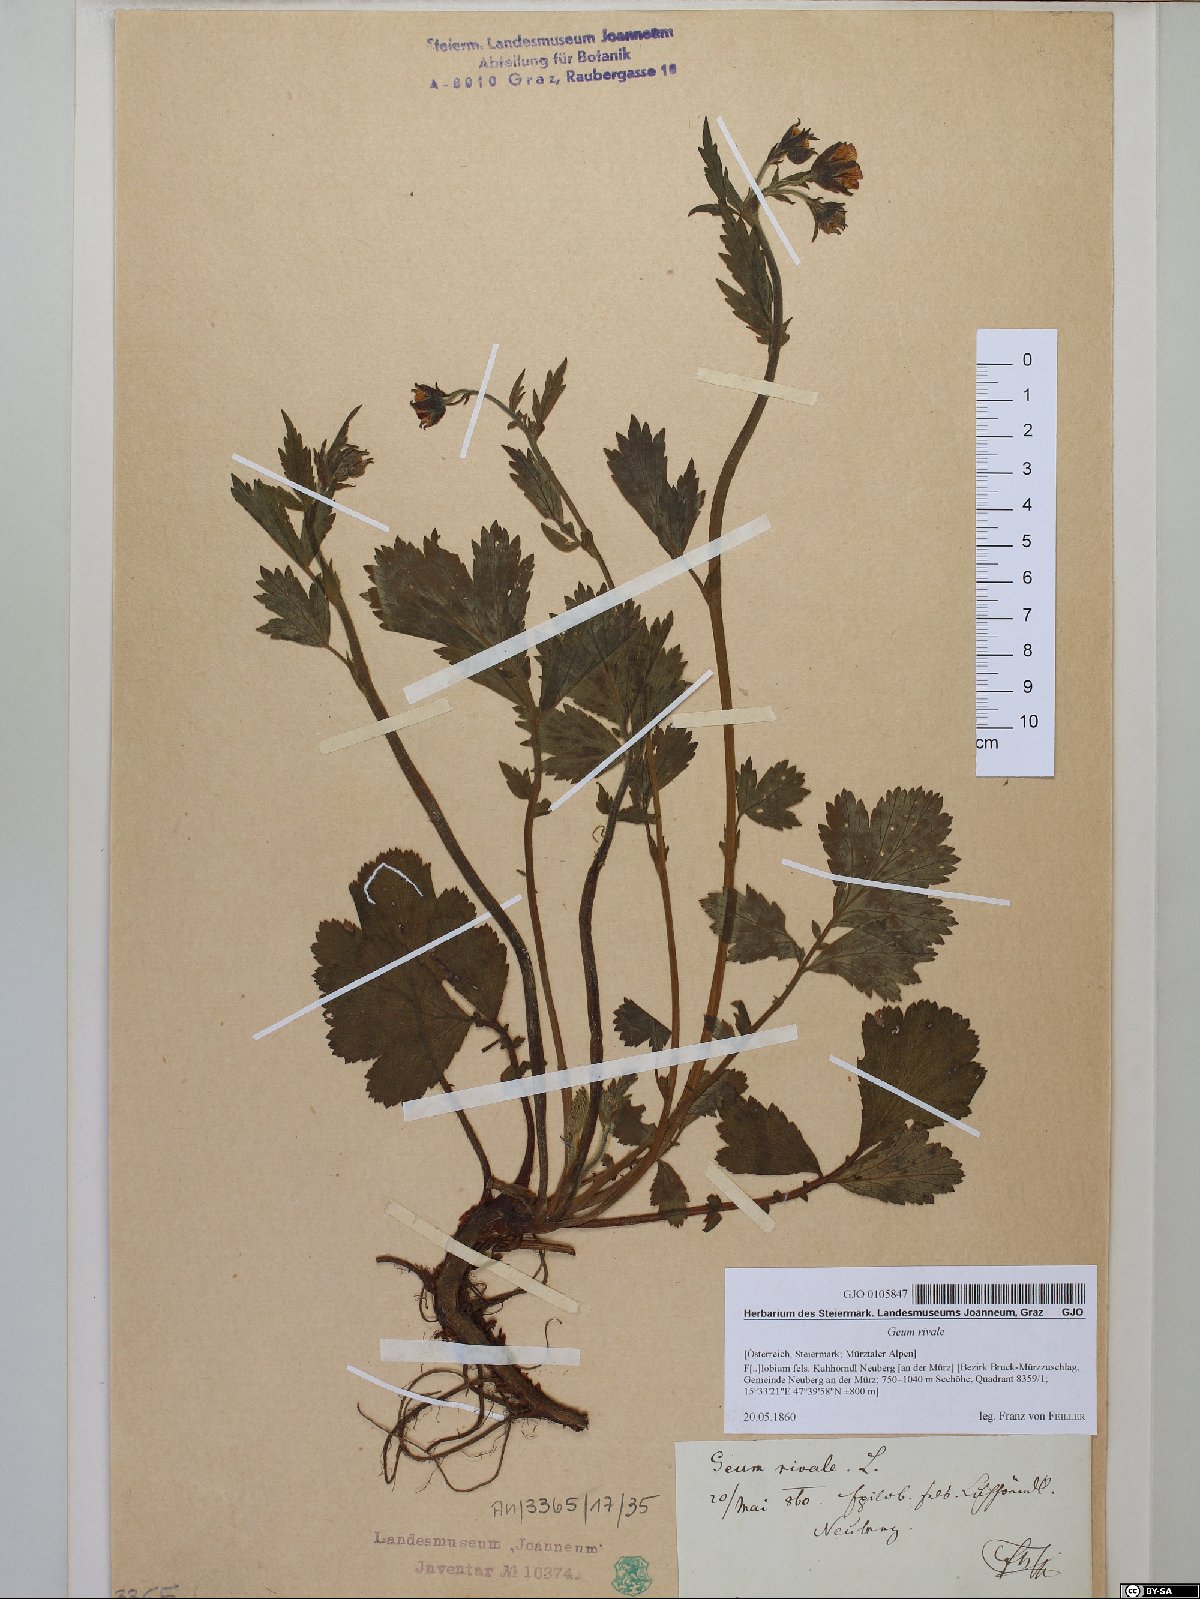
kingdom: Plantae
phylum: Tracheophyta
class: Magnoliopsida
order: Rosales
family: Rosaceae
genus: Geum
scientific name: Geum rivale
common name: Water avens
